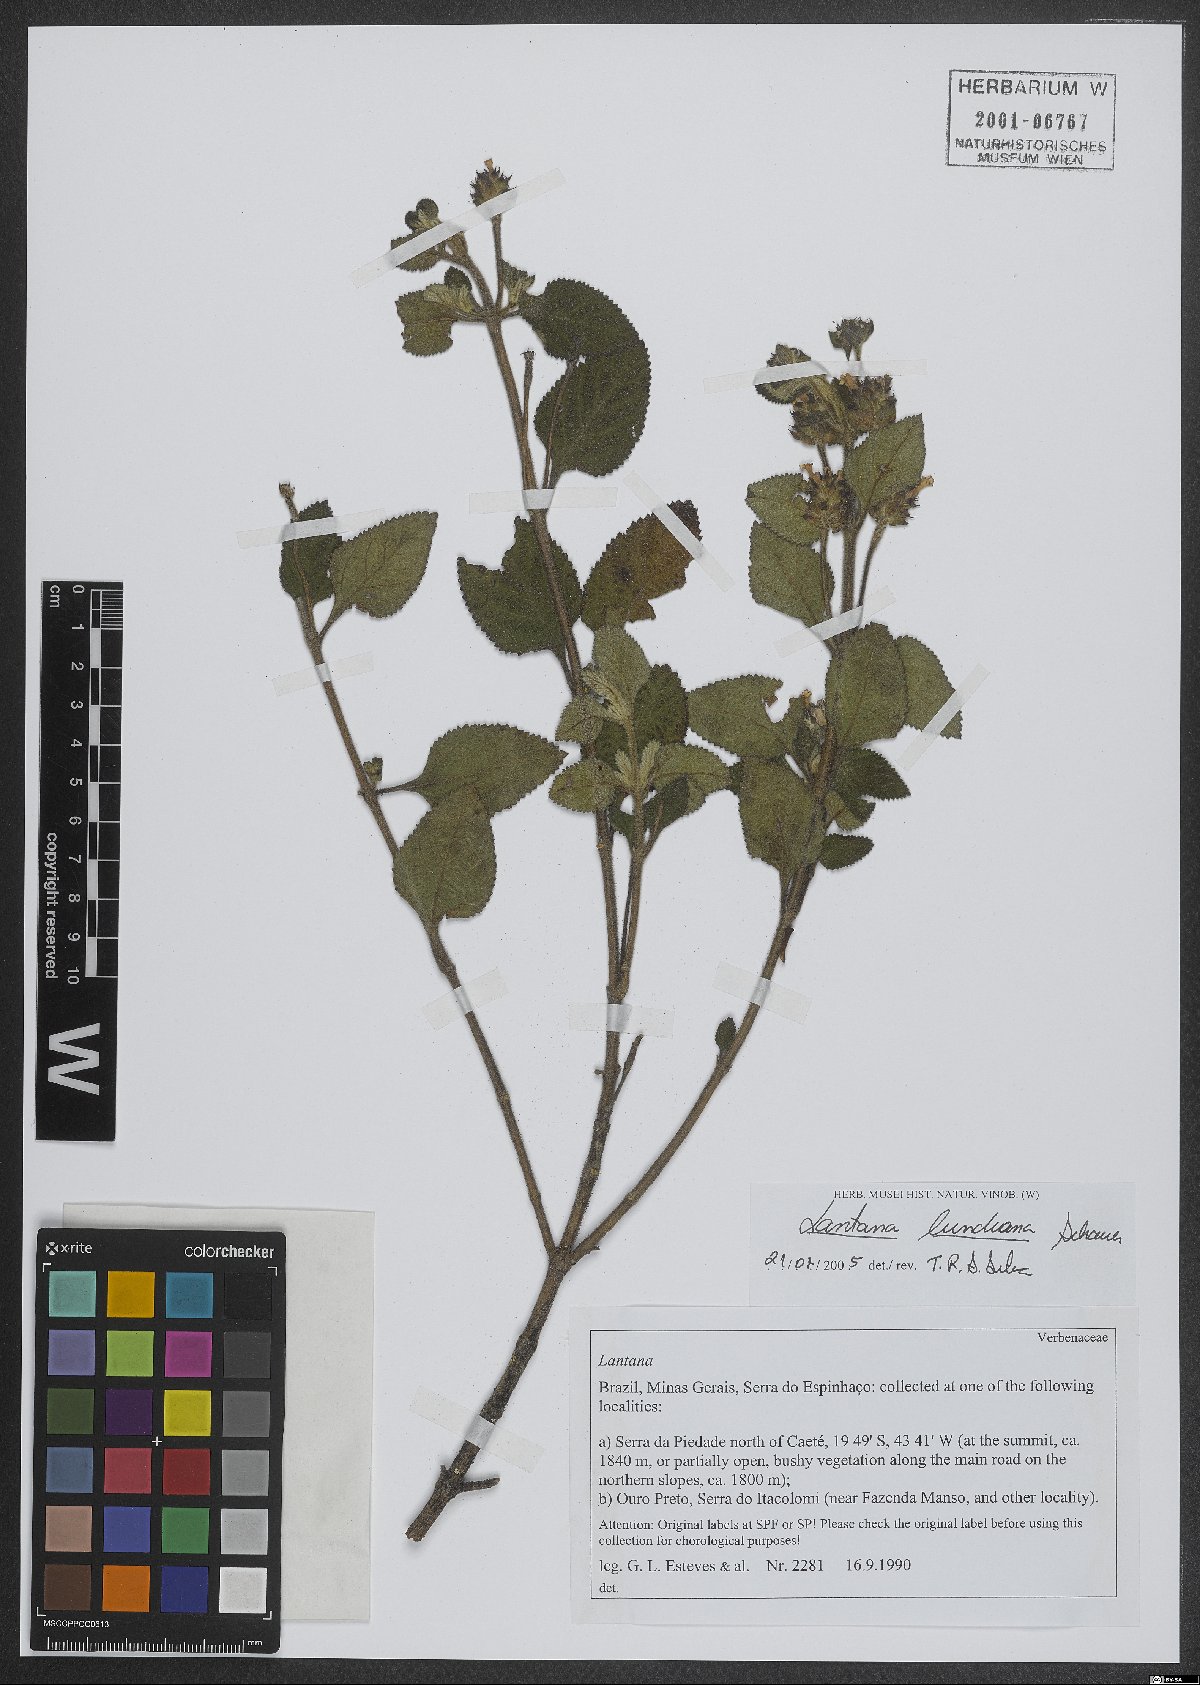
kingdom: Plantae
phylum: Tracheophyta
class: Magnoliopsida
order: Lamiales
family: Verbenaceae
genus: Lantana
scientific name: Lantana lundiana
